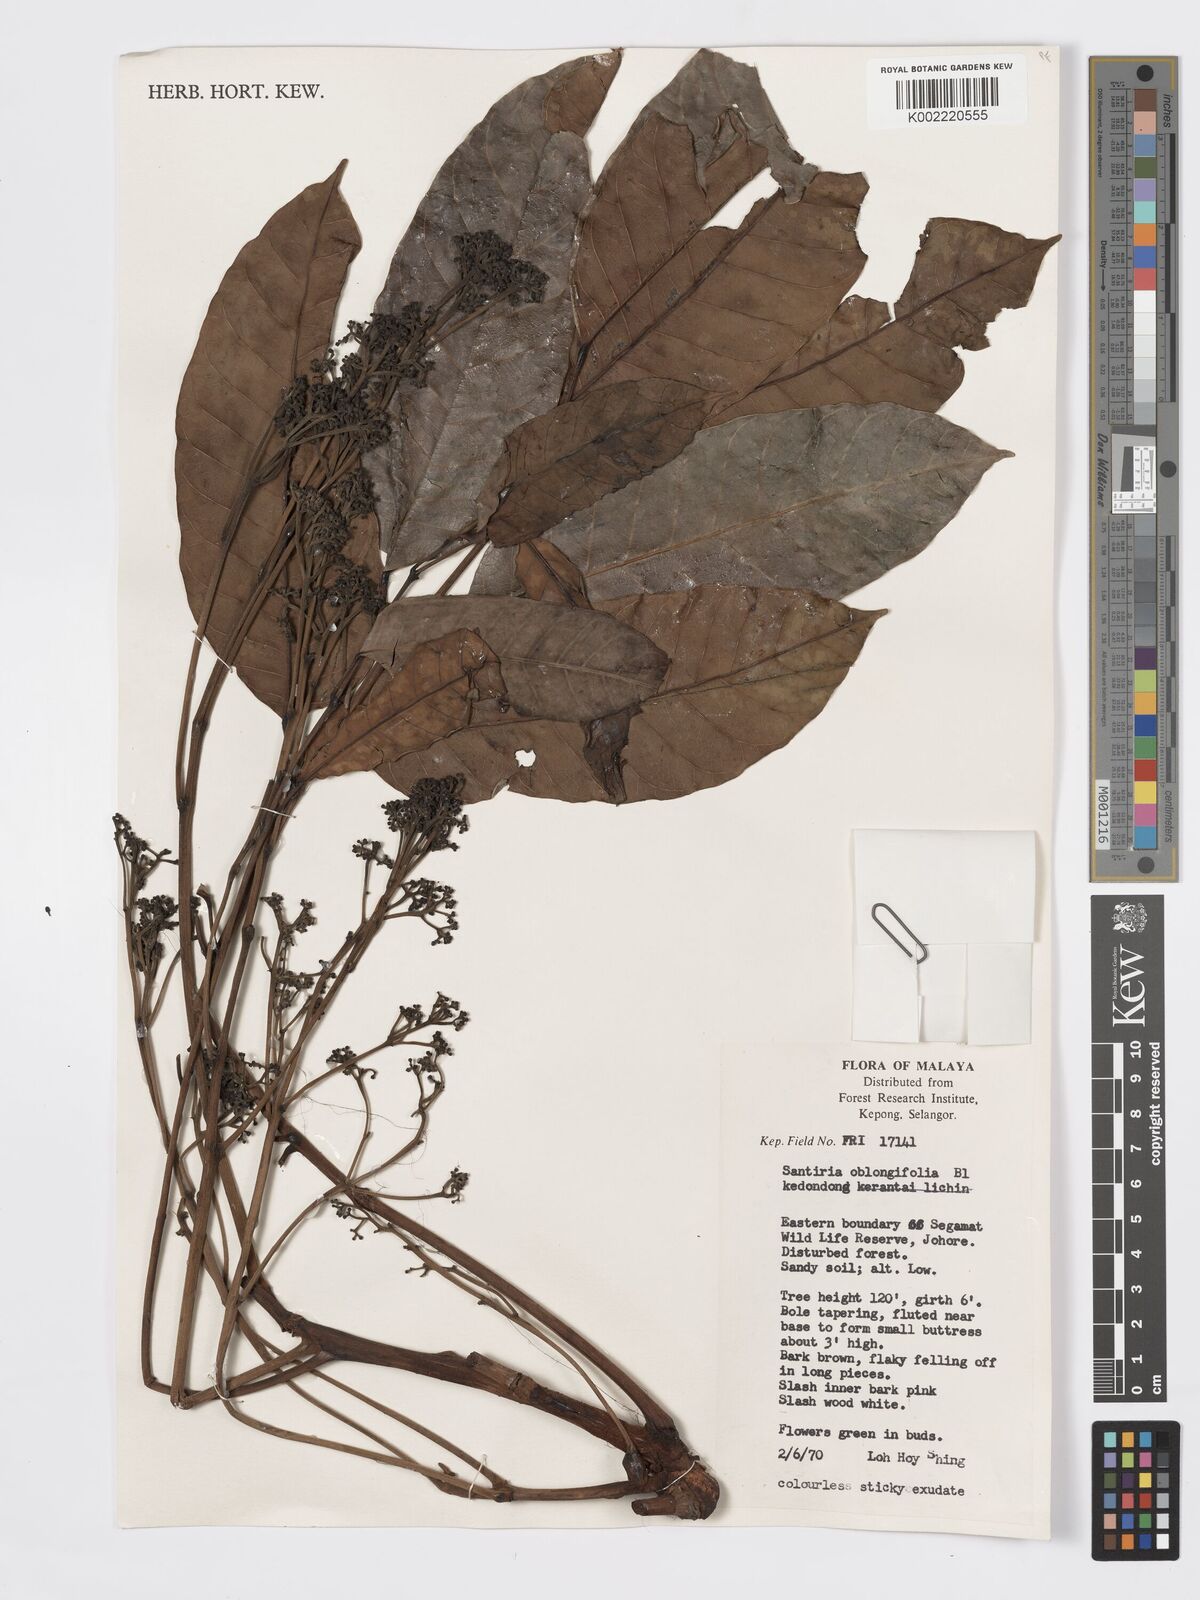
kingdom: Plantae
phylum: Tracheophyta
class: Magnoliopsida
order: Sapindales
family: Burseraceae
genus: Santiria
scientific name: Santiria oblongifolia
